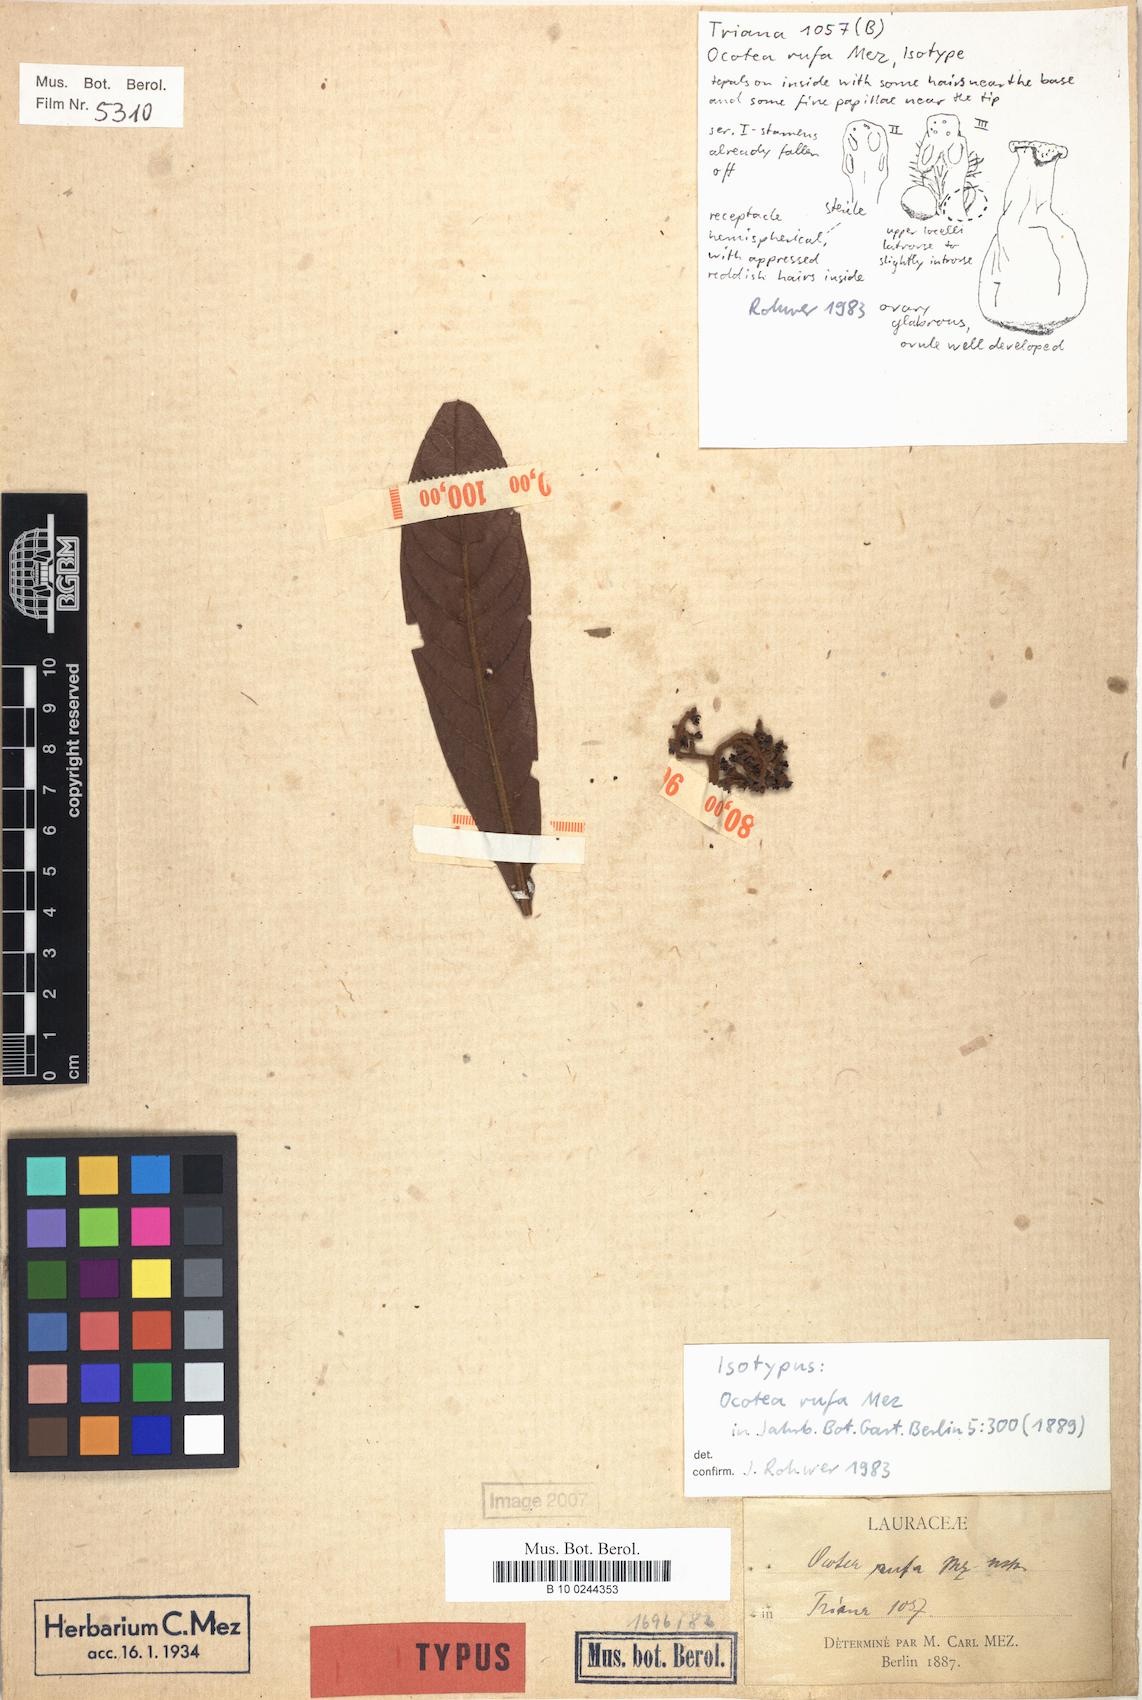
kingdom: Plantae
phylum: Tracheophyta
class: Magnoliopsida
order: Laurales
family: Lauraceae
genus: Ocotea
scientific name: Ocotea rufa
